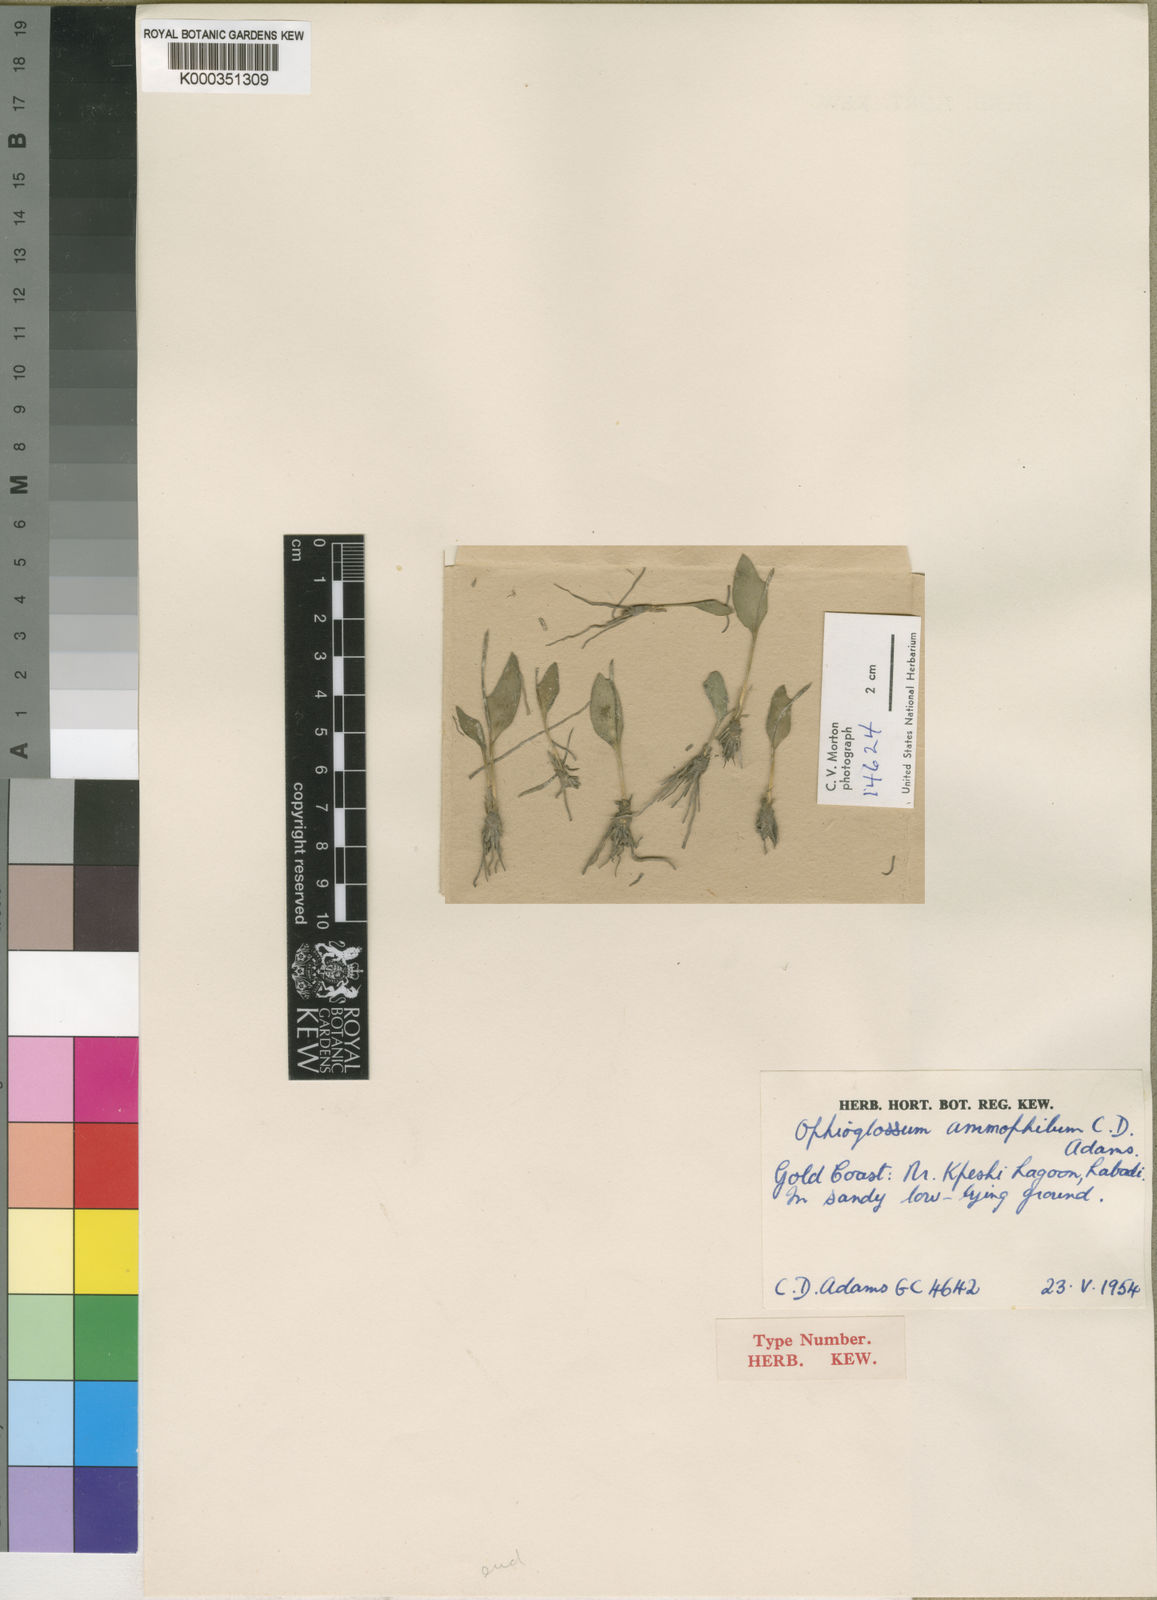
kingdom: Plantae
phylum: Tracheophyta
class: Polypodiopsida
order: Ophioglossales
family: Ophioglossaceae
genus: Ophioglossum
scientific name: Ophioglossum ammophilum
